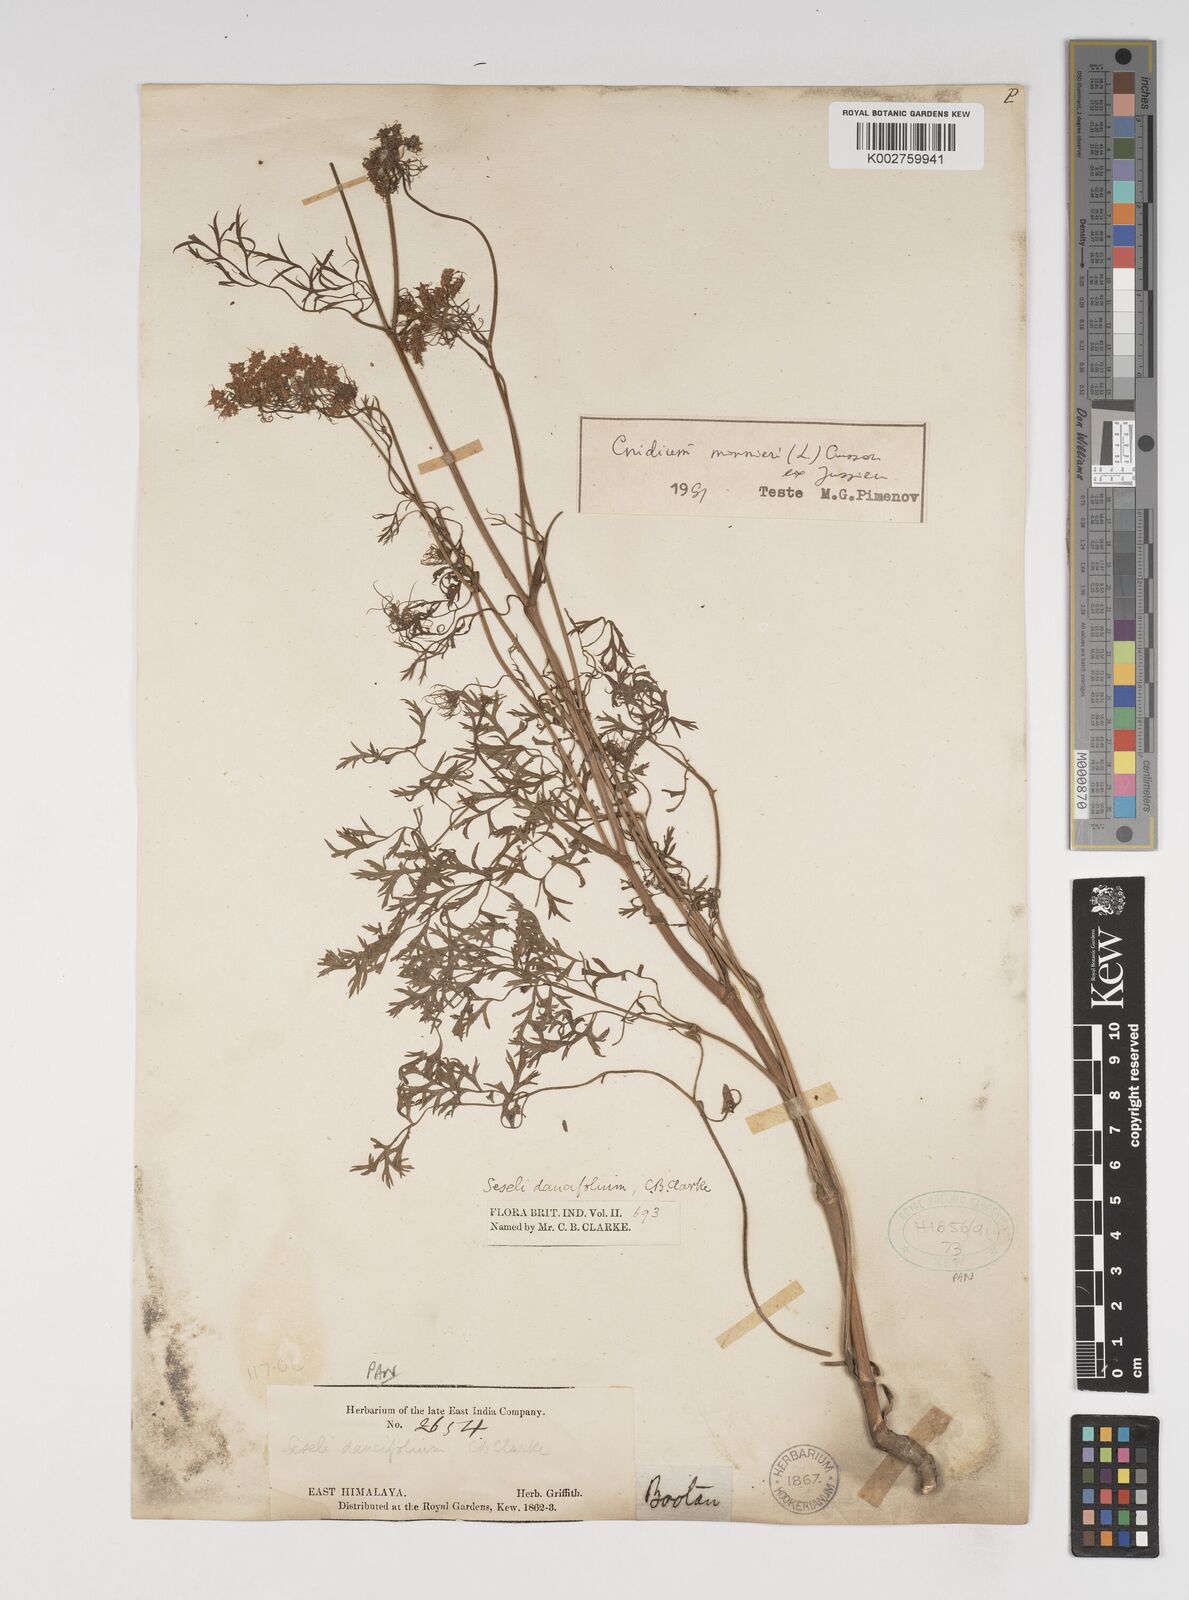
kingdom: Plantae
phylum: Tracheophyta
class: Magnoliopsida
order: Apiales
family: Apiaceae
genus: Cnidium
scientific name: Cnidium monnieri
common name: Monnier's snowparsley
